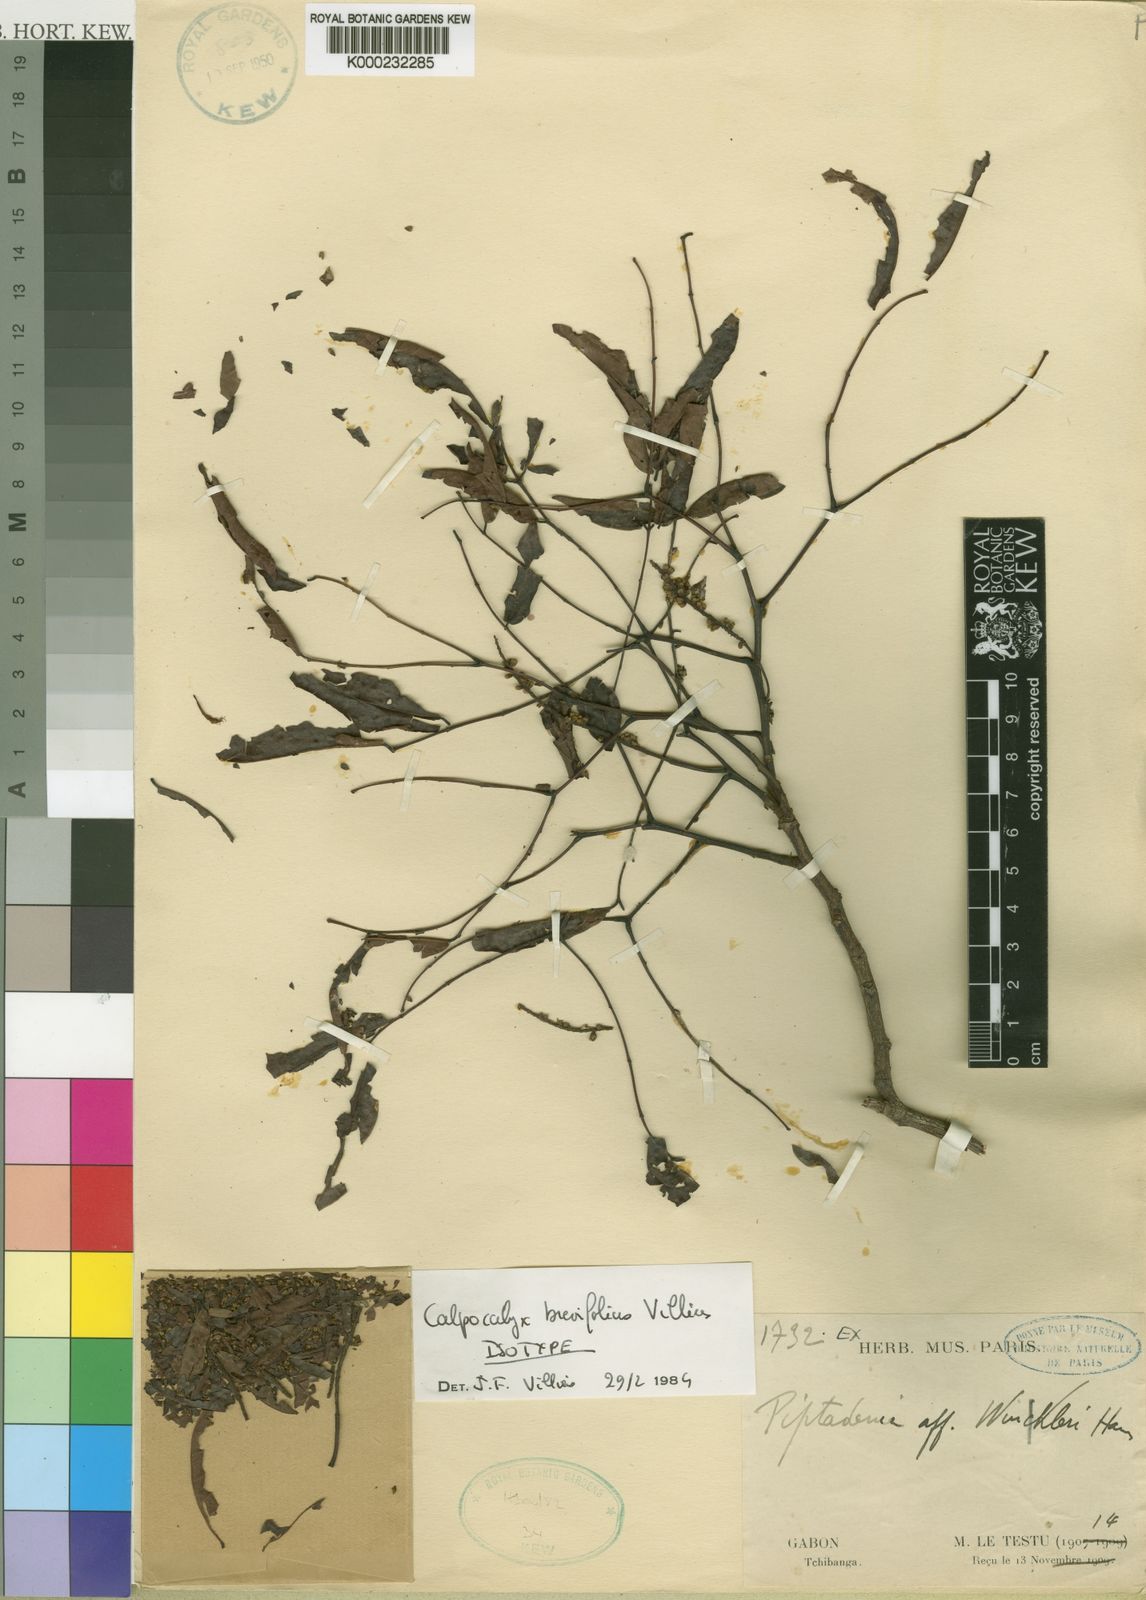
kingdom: Plantae
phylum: Tracheophyta
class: Magnoliopsida
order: Fabales
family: Fabaceae
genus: Calpocalyx
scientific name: Calpocalyx brevifolius
